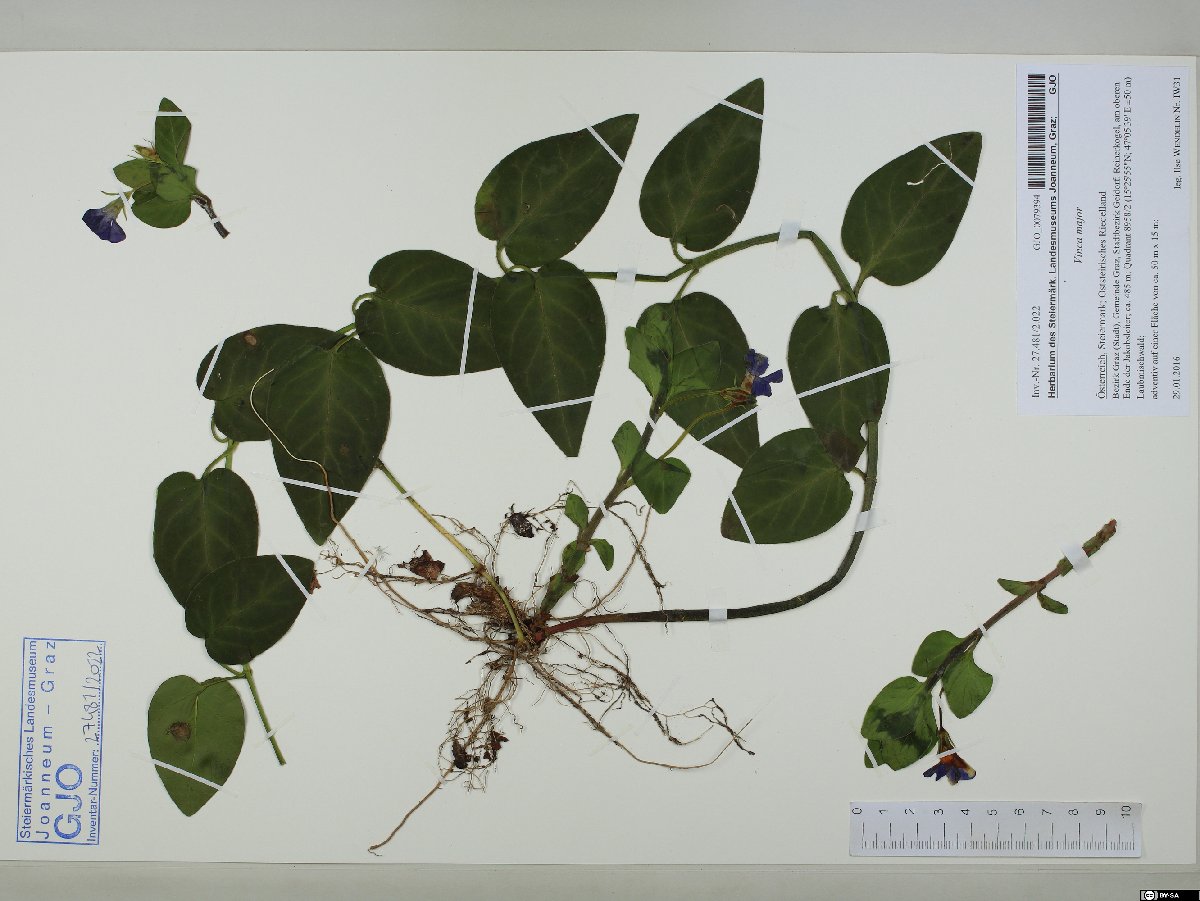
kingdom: Plantae
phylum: Tracheophyta
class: Magnoliopsida
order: Gentianales
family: Apocynaceae
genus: Vinca
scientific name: Vinca major
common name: Greater periwinkle
